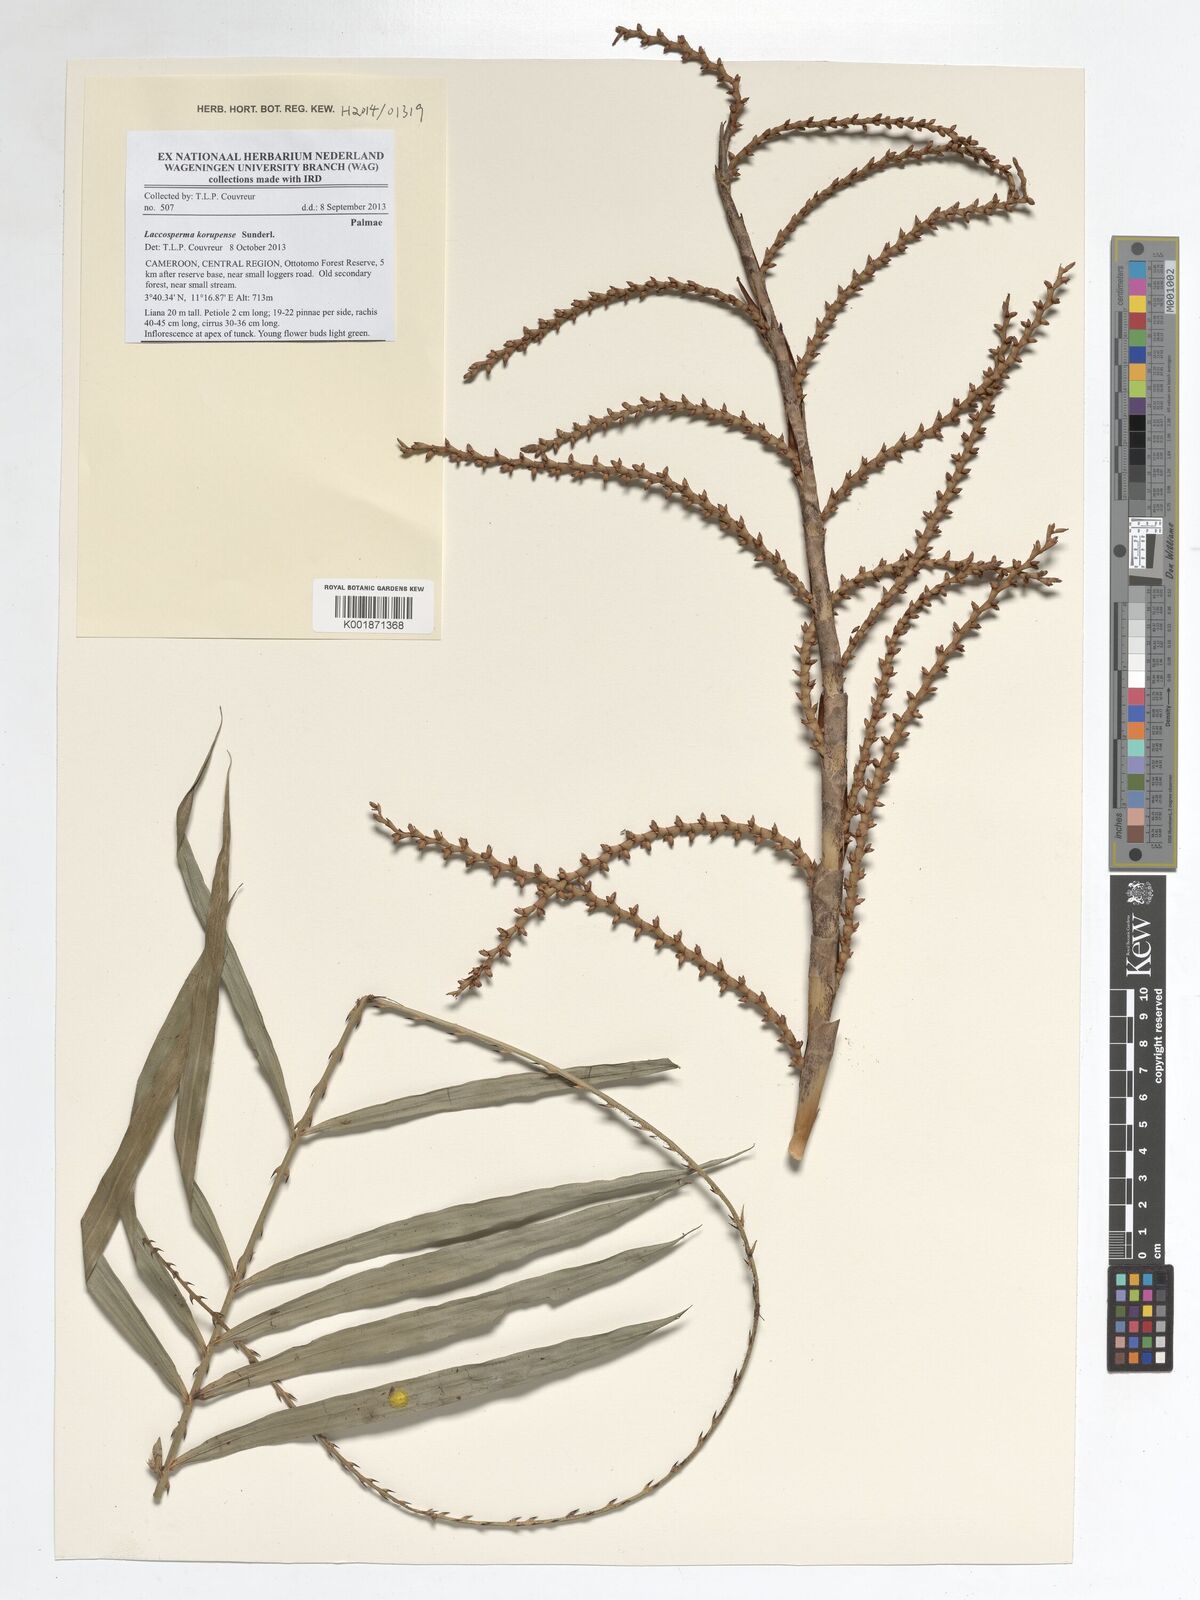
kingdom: Plantae
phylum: Tracheophyta
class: Liliopsida
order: Arecales
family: Arecaceae
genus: Laccosperma
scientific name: Laccosperma korupense
